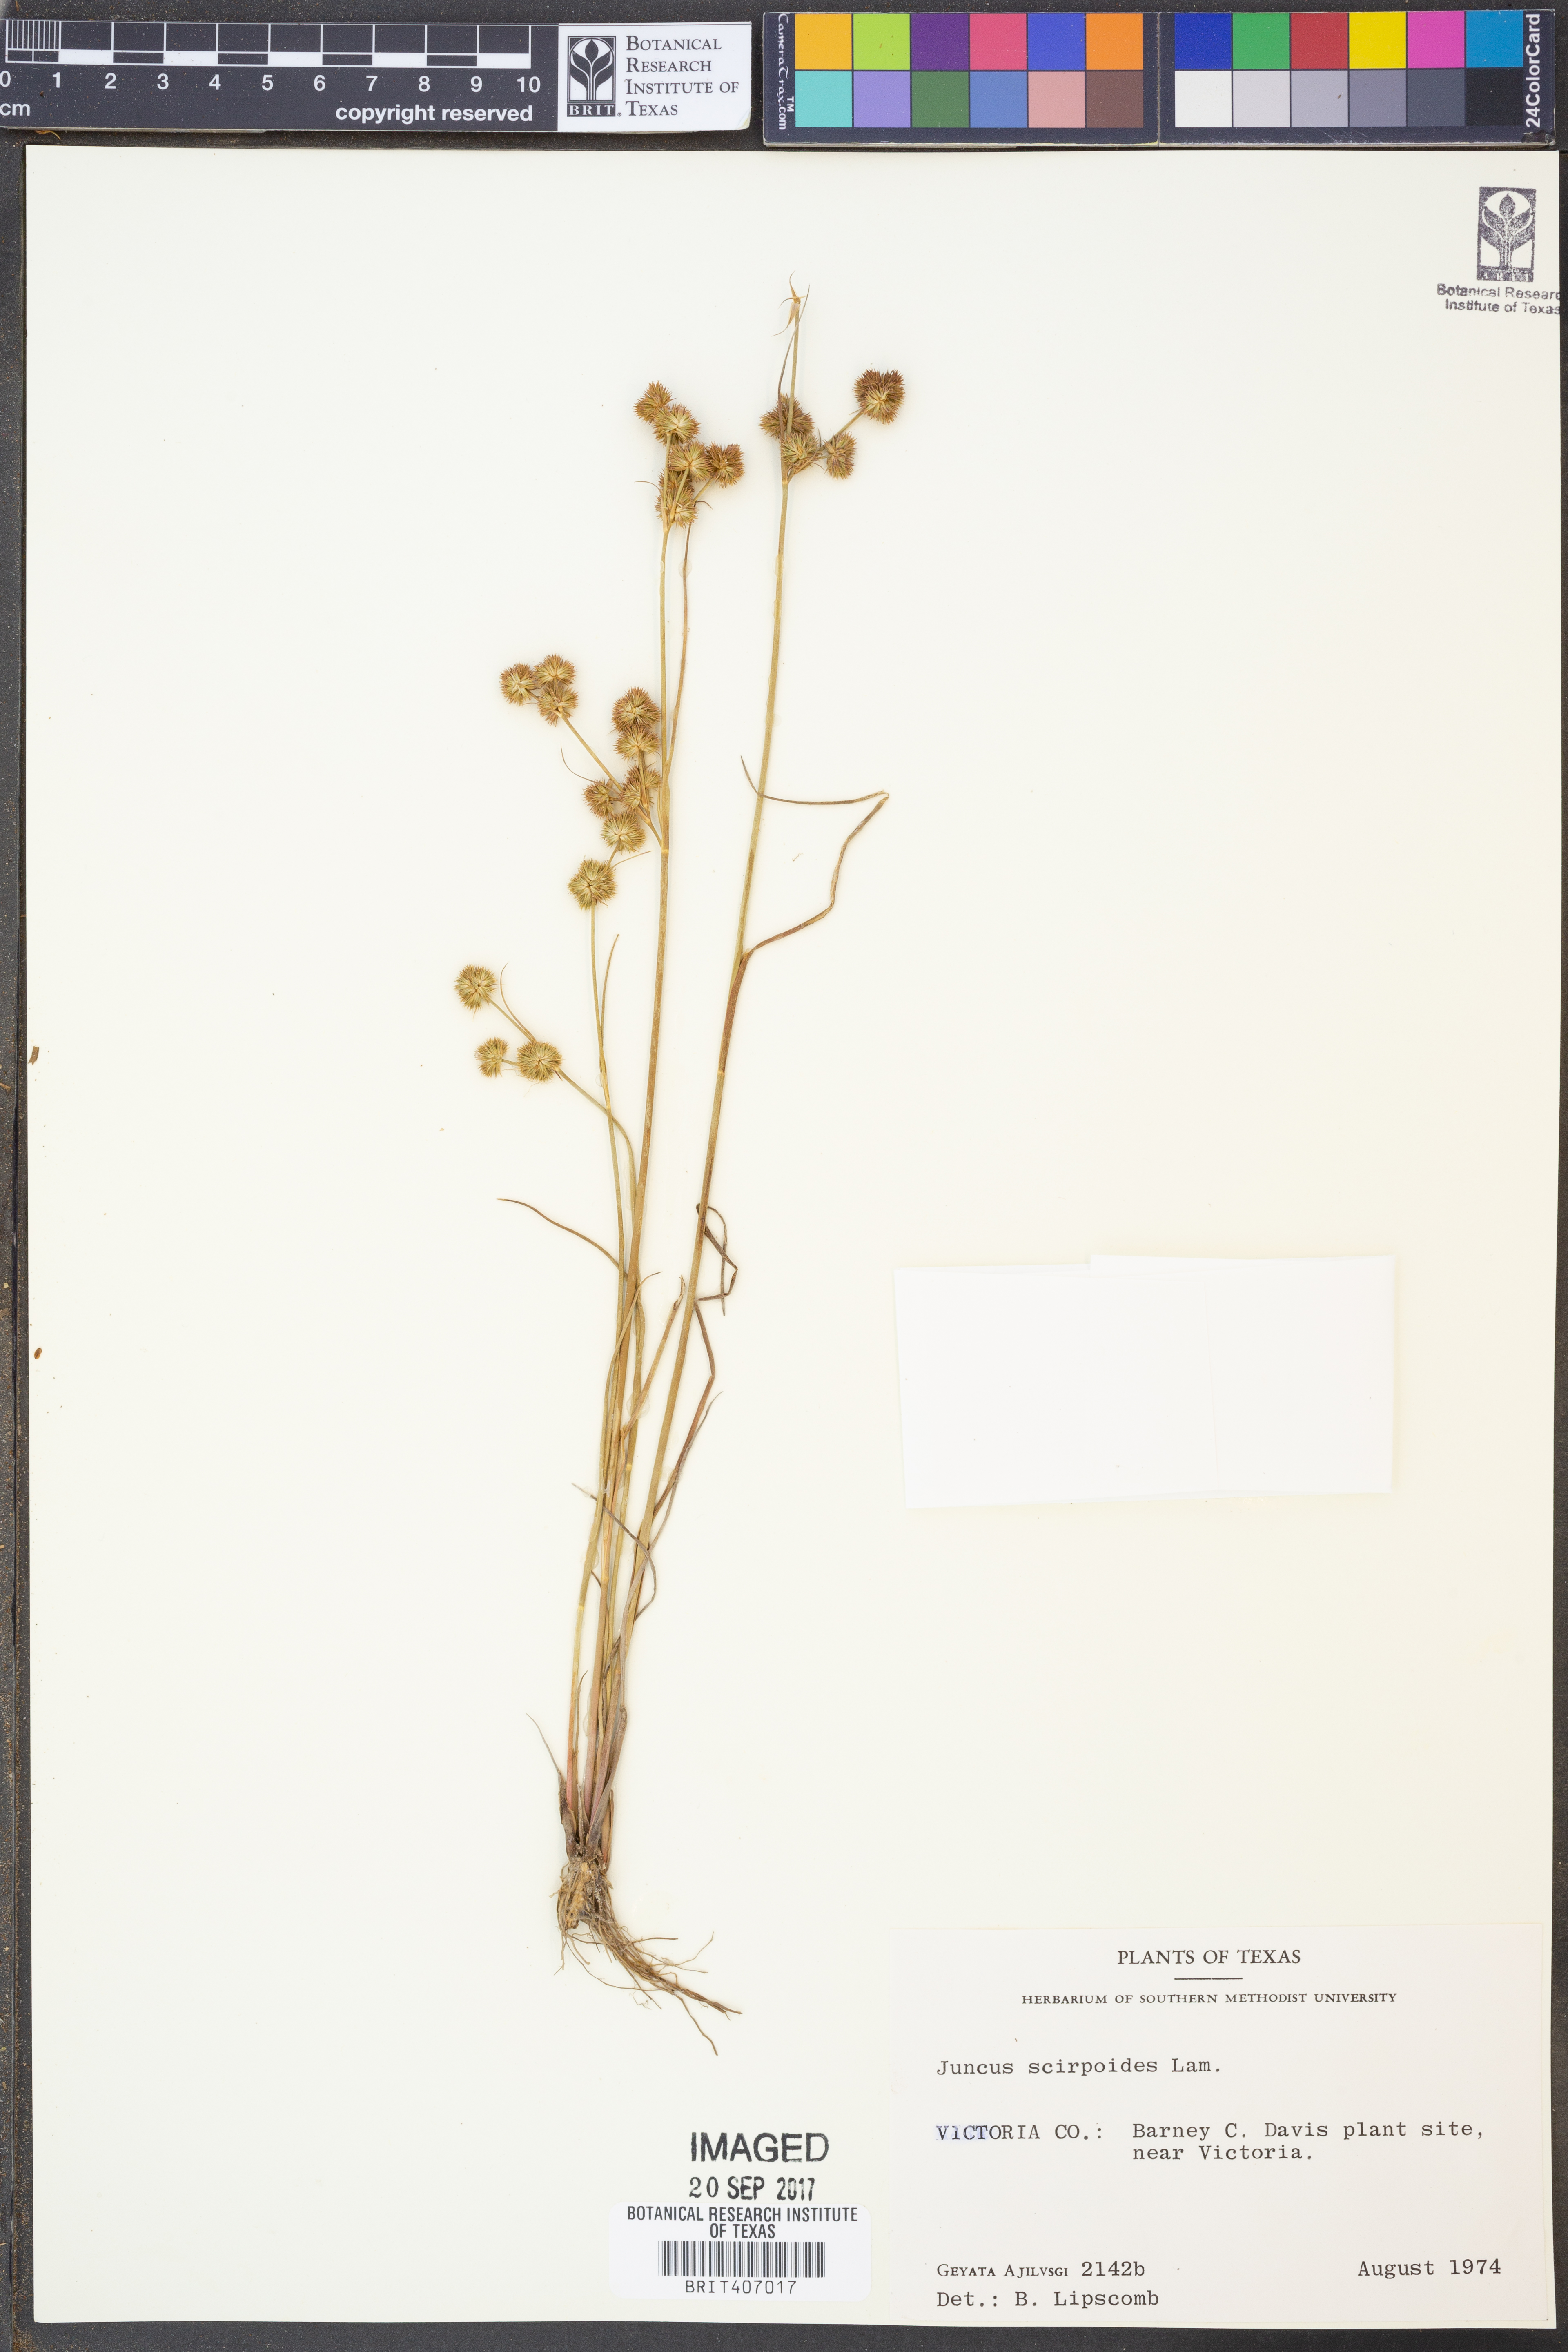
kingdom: Plantae
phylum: Tracheophyta
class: Liliopsida
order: Poales
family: Juncaceae
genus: Juncus
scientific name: Juncus scirpoides
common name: Needlepod rush
